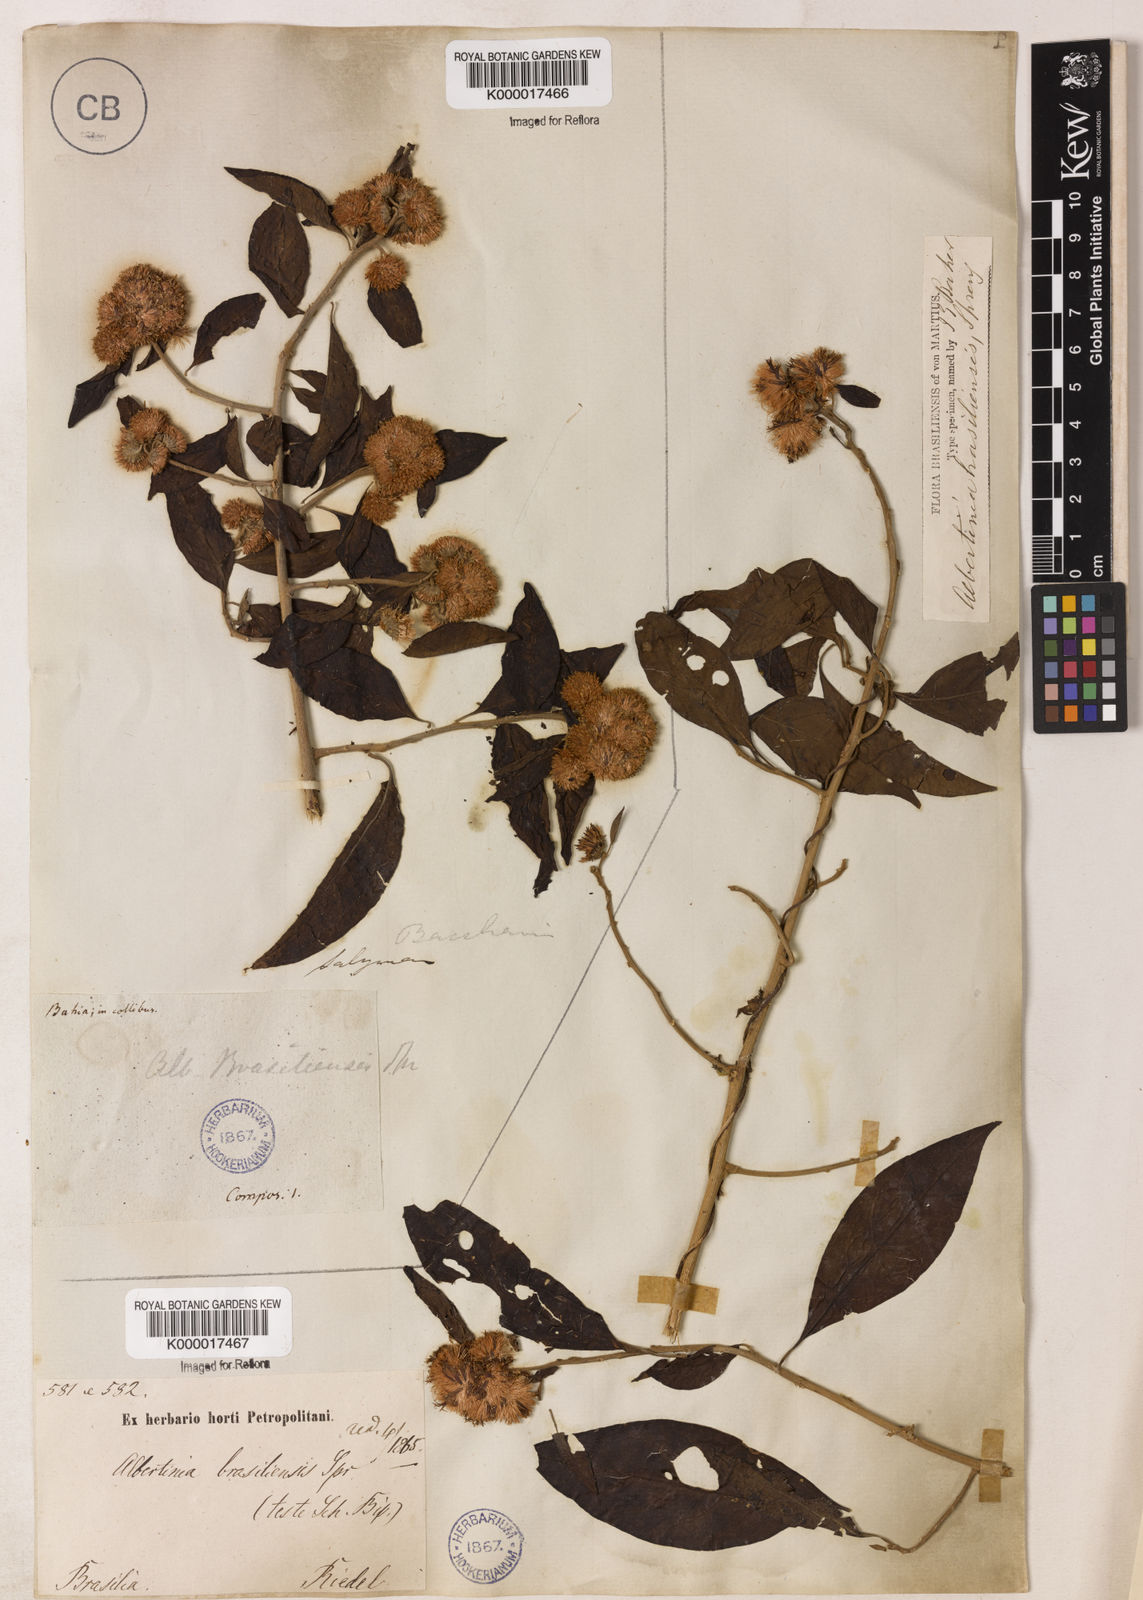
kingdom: Plantae
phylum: Tracheophyta
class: Magnoliopsida
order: Asterales
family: Asteraceae
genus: Albertinia
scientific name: Albertinia brasiliensis
